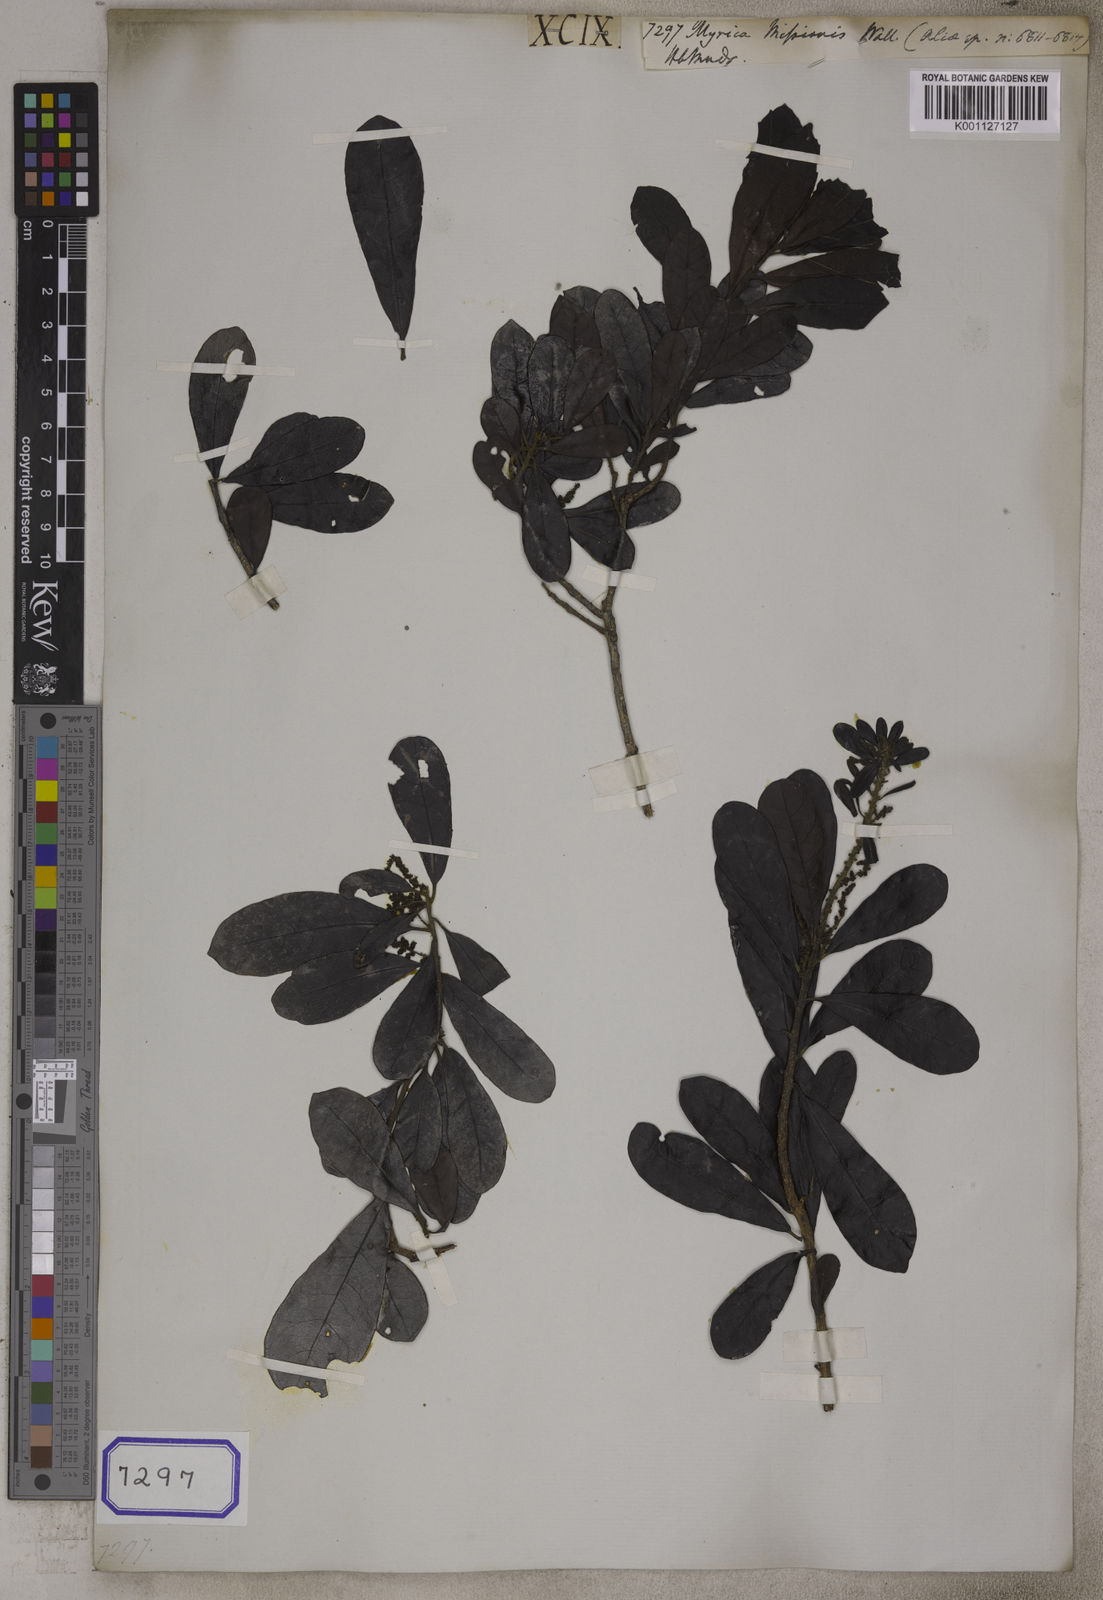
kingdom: Plantae
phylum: Tracheophyta
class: Magnoliopsida
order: Fagales
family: Myricaceae
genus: Morella
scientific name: Morella esculenta
